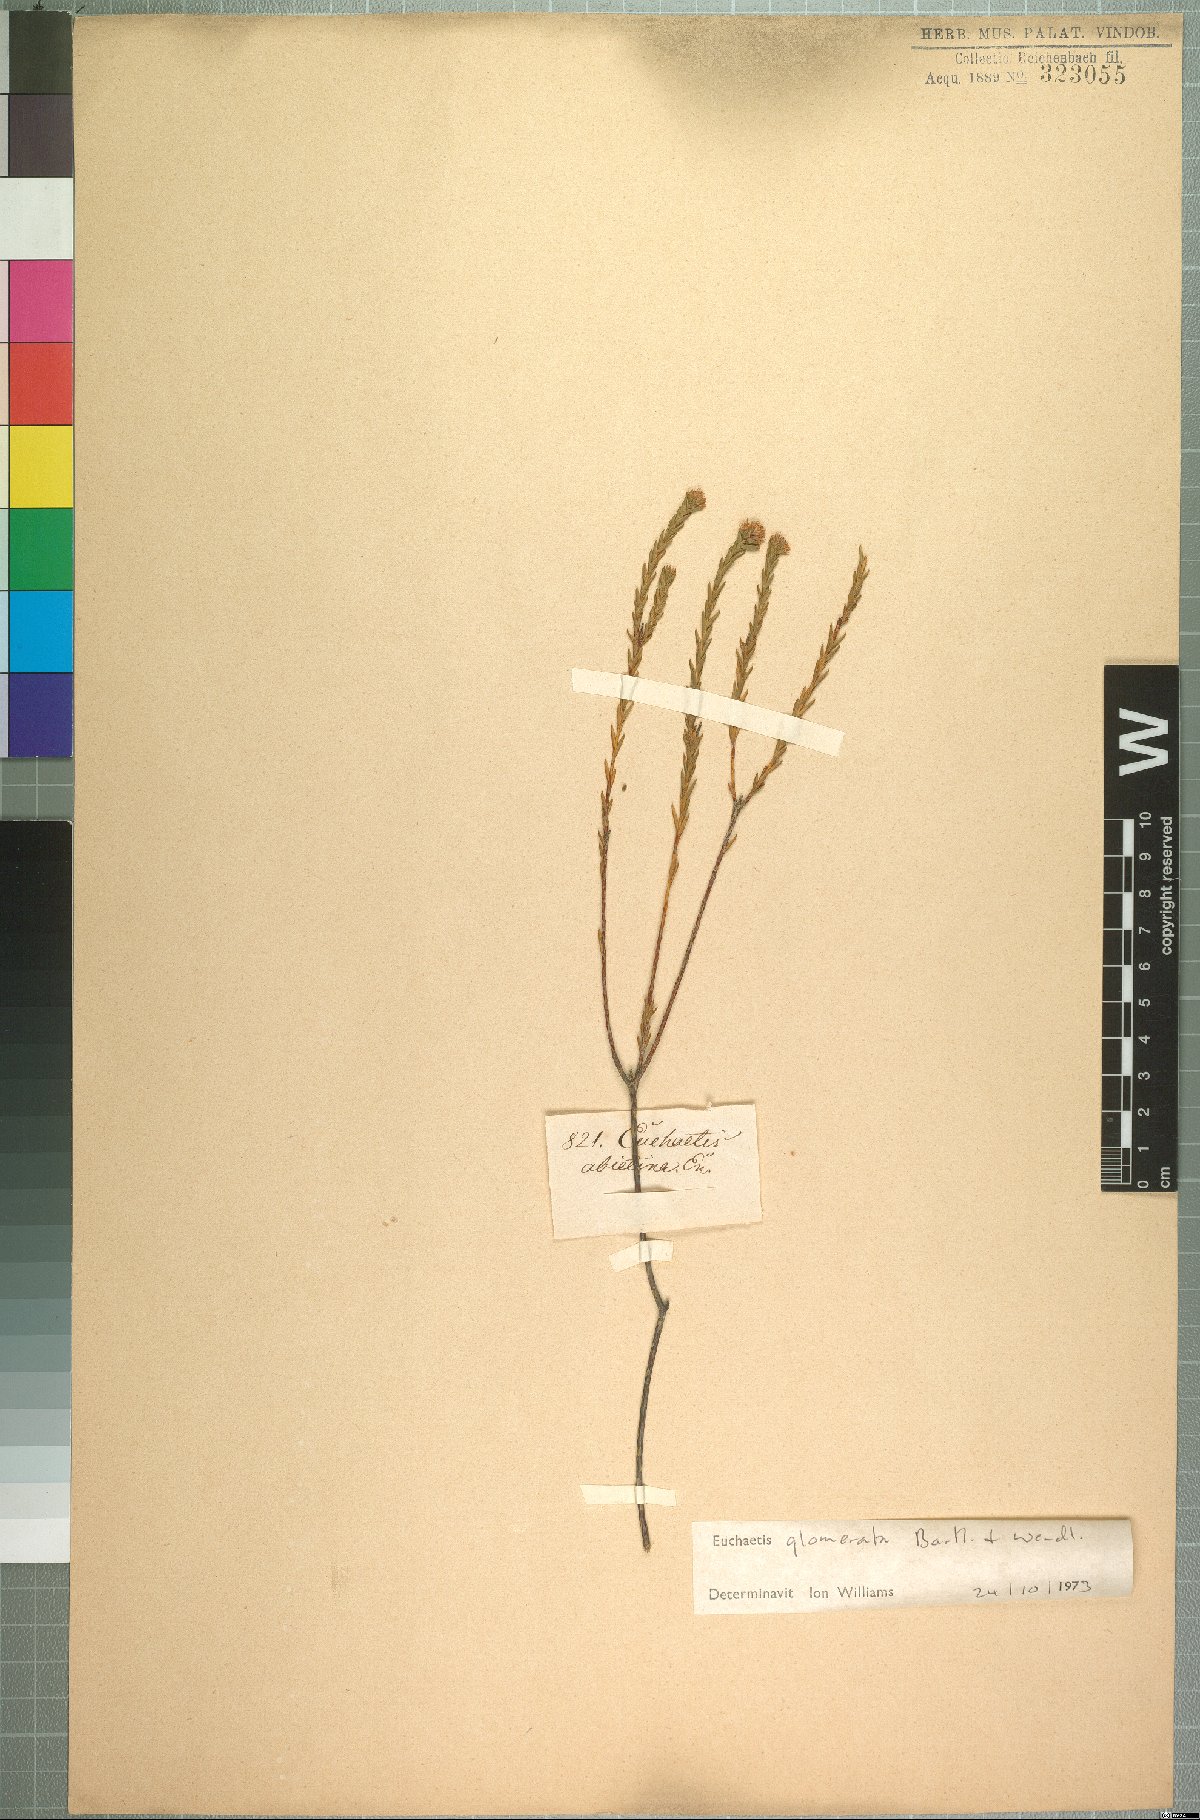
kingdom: Plantae
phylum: Tracheophyta
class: Magnoliopsida
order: Sapindales
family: Rutaceae
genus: Euchaetis
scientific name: Euchaetis glomerata
